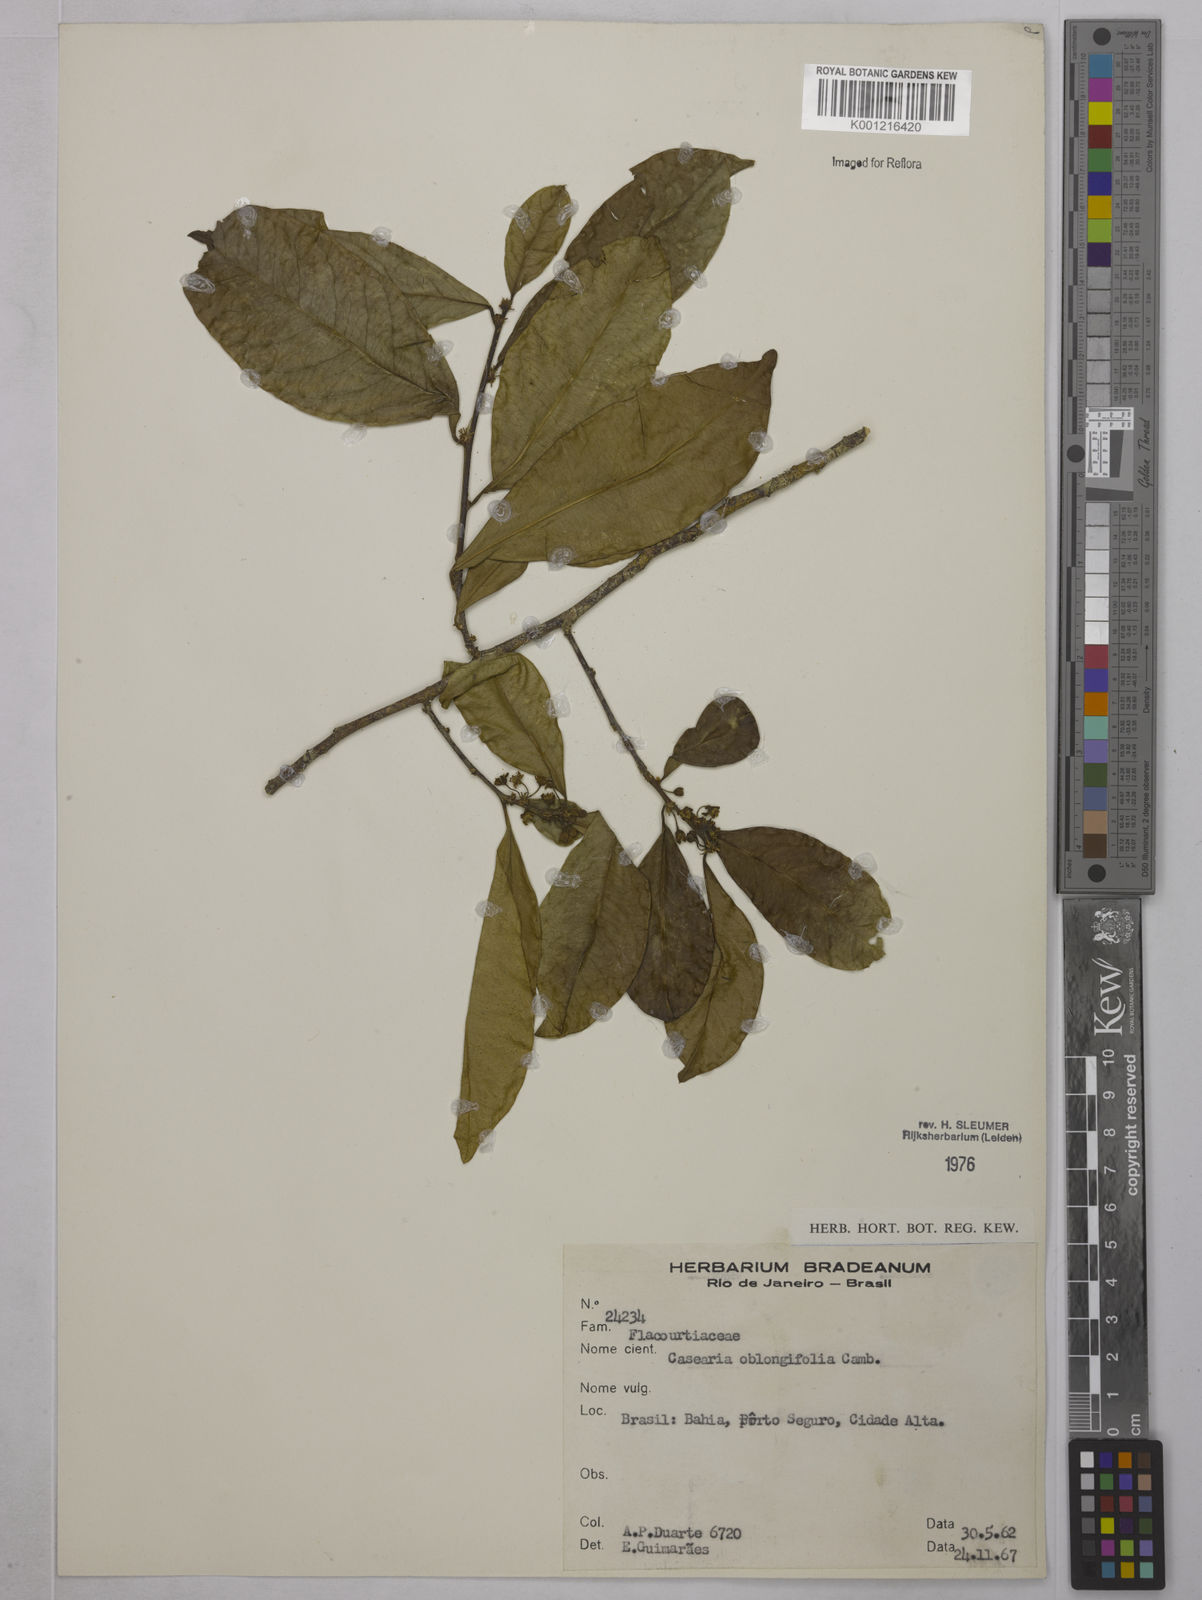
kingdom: Plantae
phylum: Tracheophyta
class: Magnoliopsida
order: Malpighiales
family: Salicaceae
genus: Casearia
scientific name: Casearia oblongifolia
